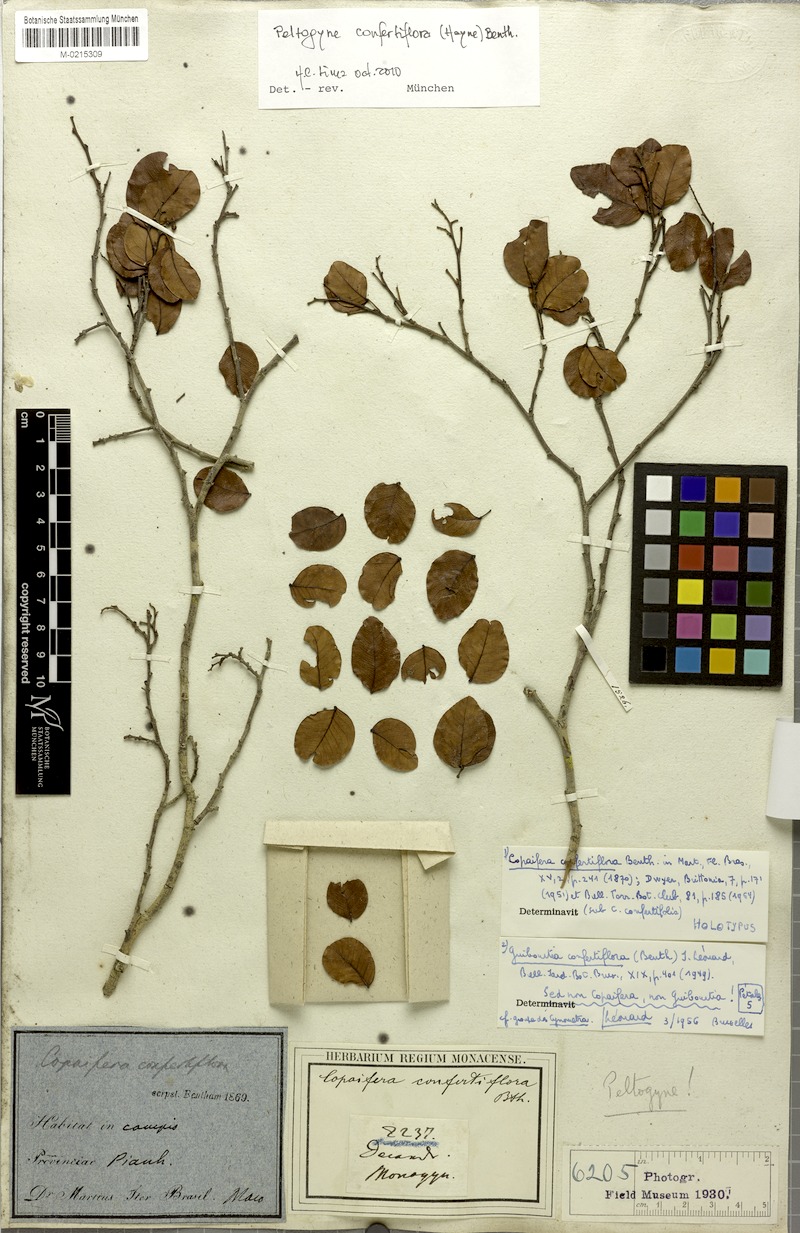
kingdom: Plantae
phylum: Tracheophyta
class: Magnoliopsida
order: Fabales
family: Fabaceae
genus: Peltogyne
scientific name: Peltogyne confertiflora
